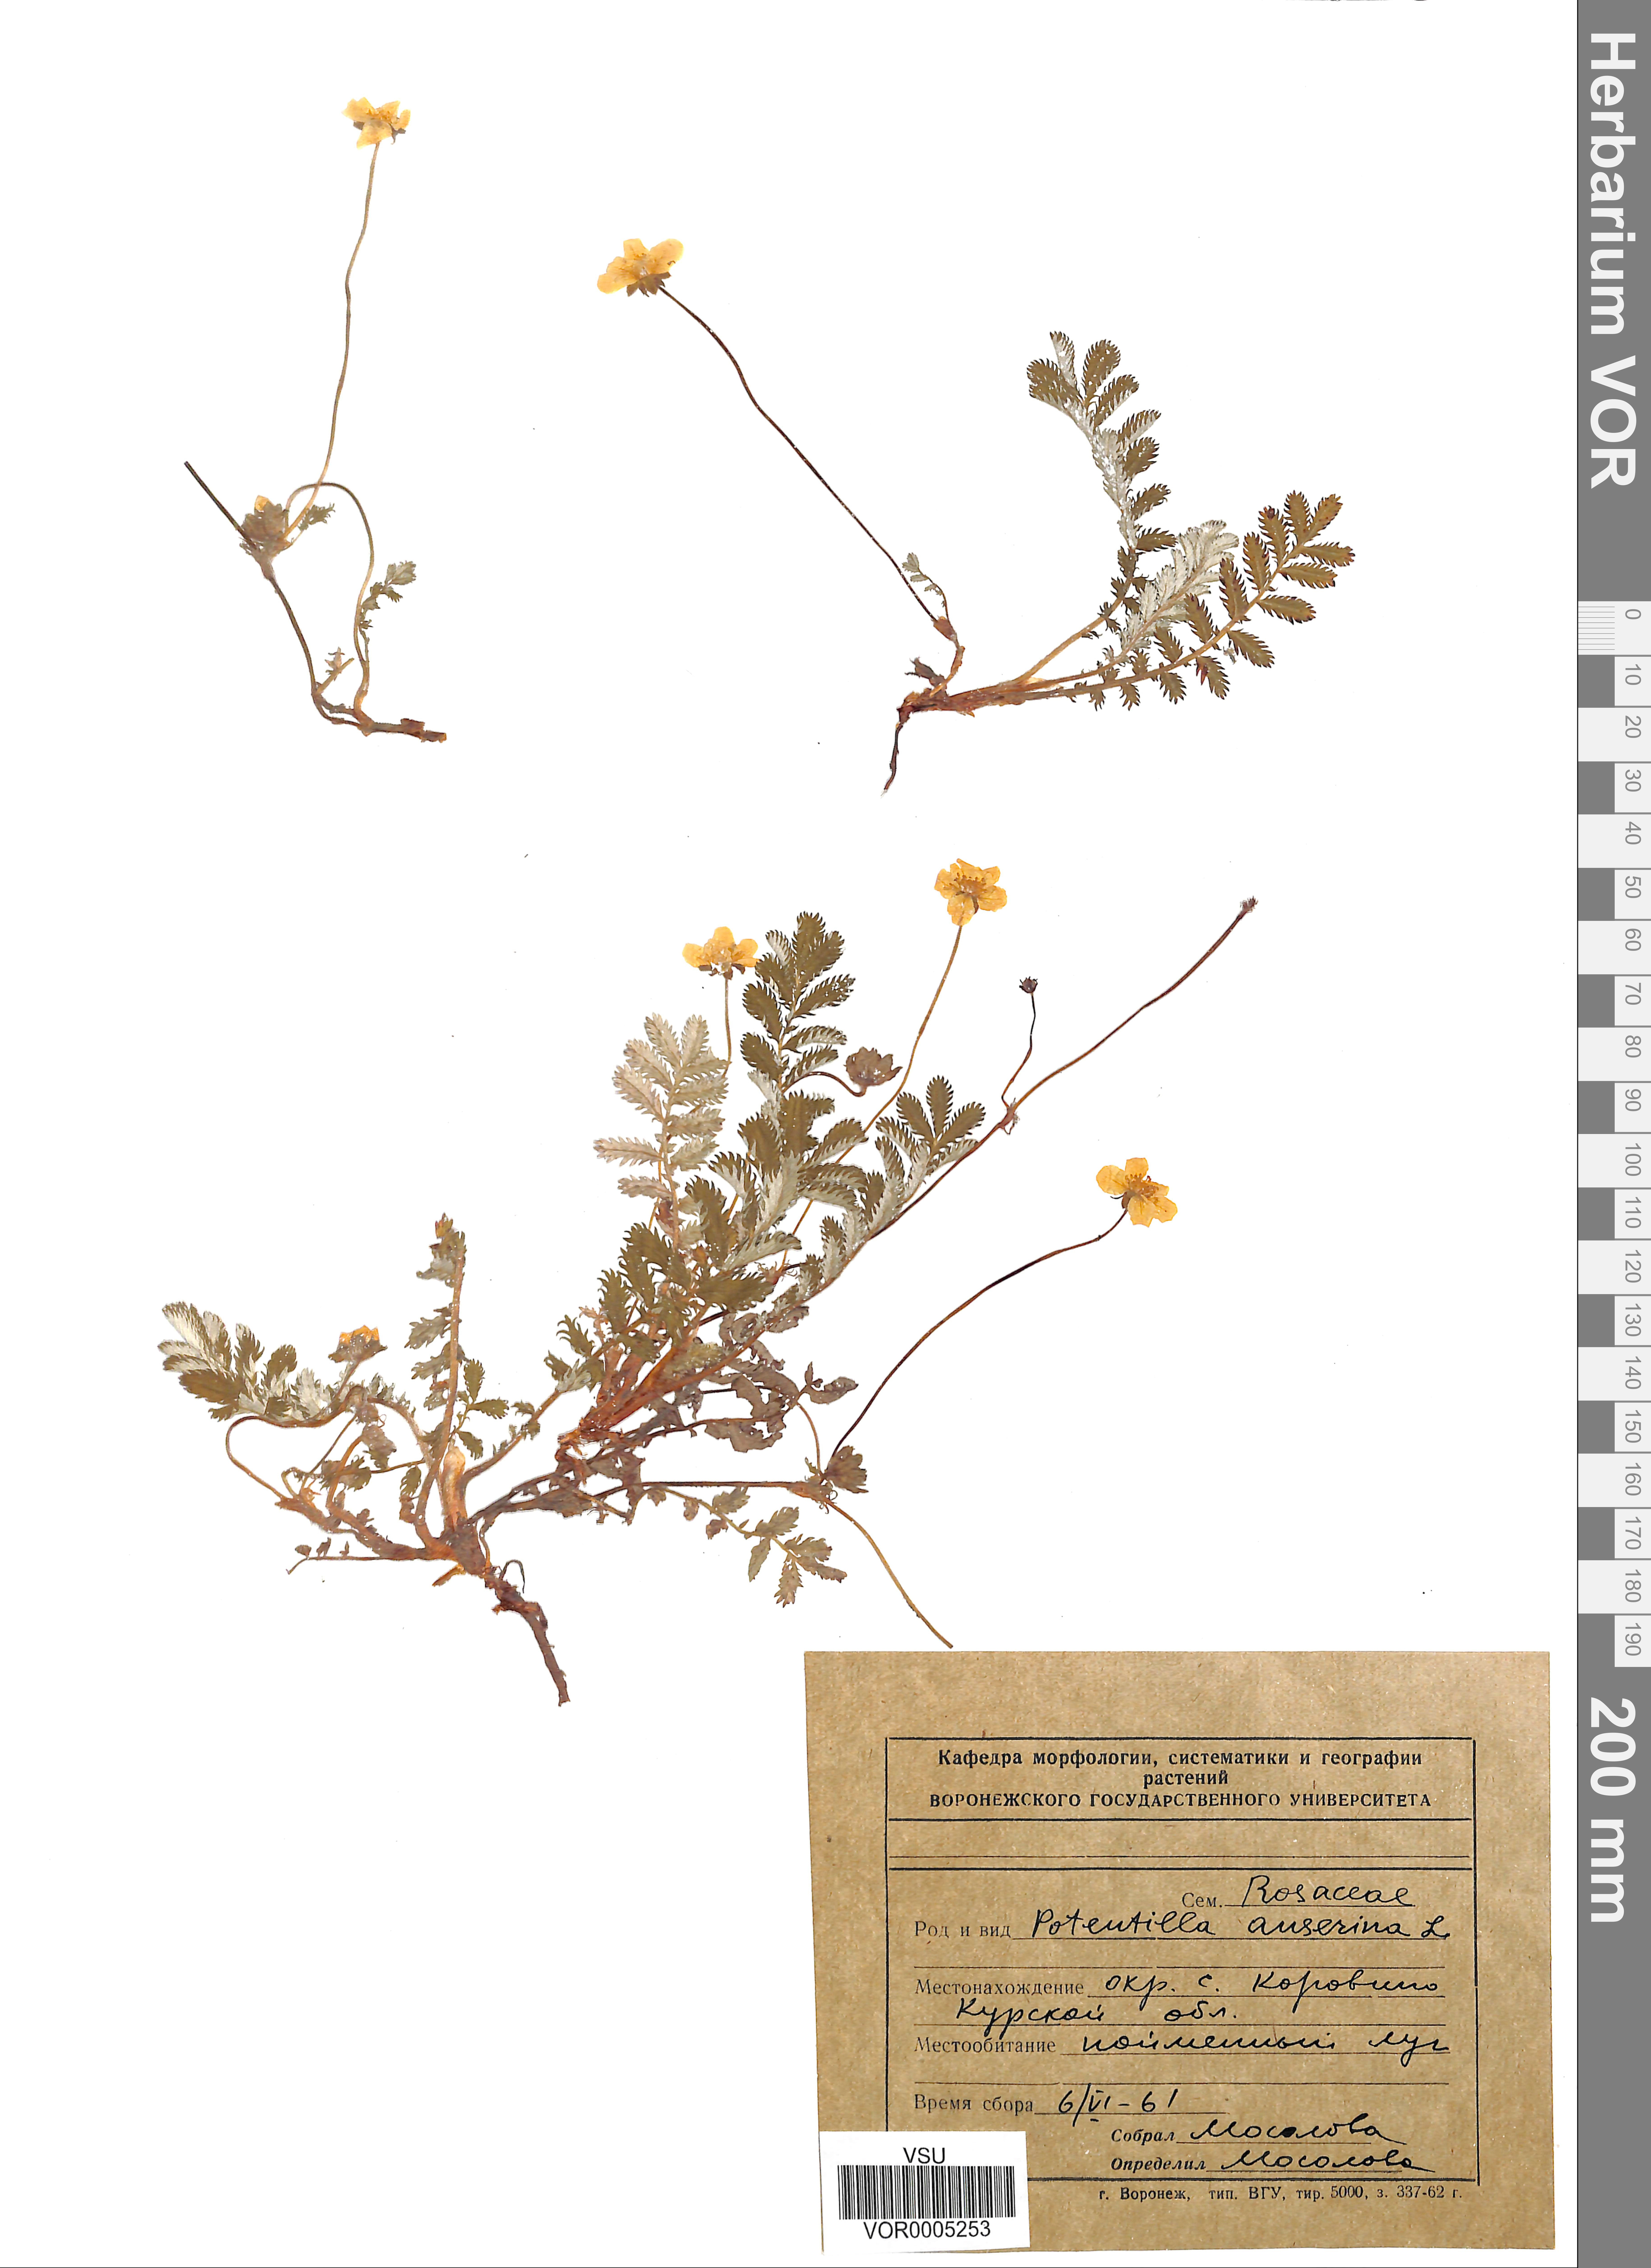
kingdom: Plantae
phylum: Tracheophyta
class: Magnoliopsida
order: Rosales
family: Rosaceae
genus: Argentina
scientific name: Argentina anserina
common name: Common silverweed
